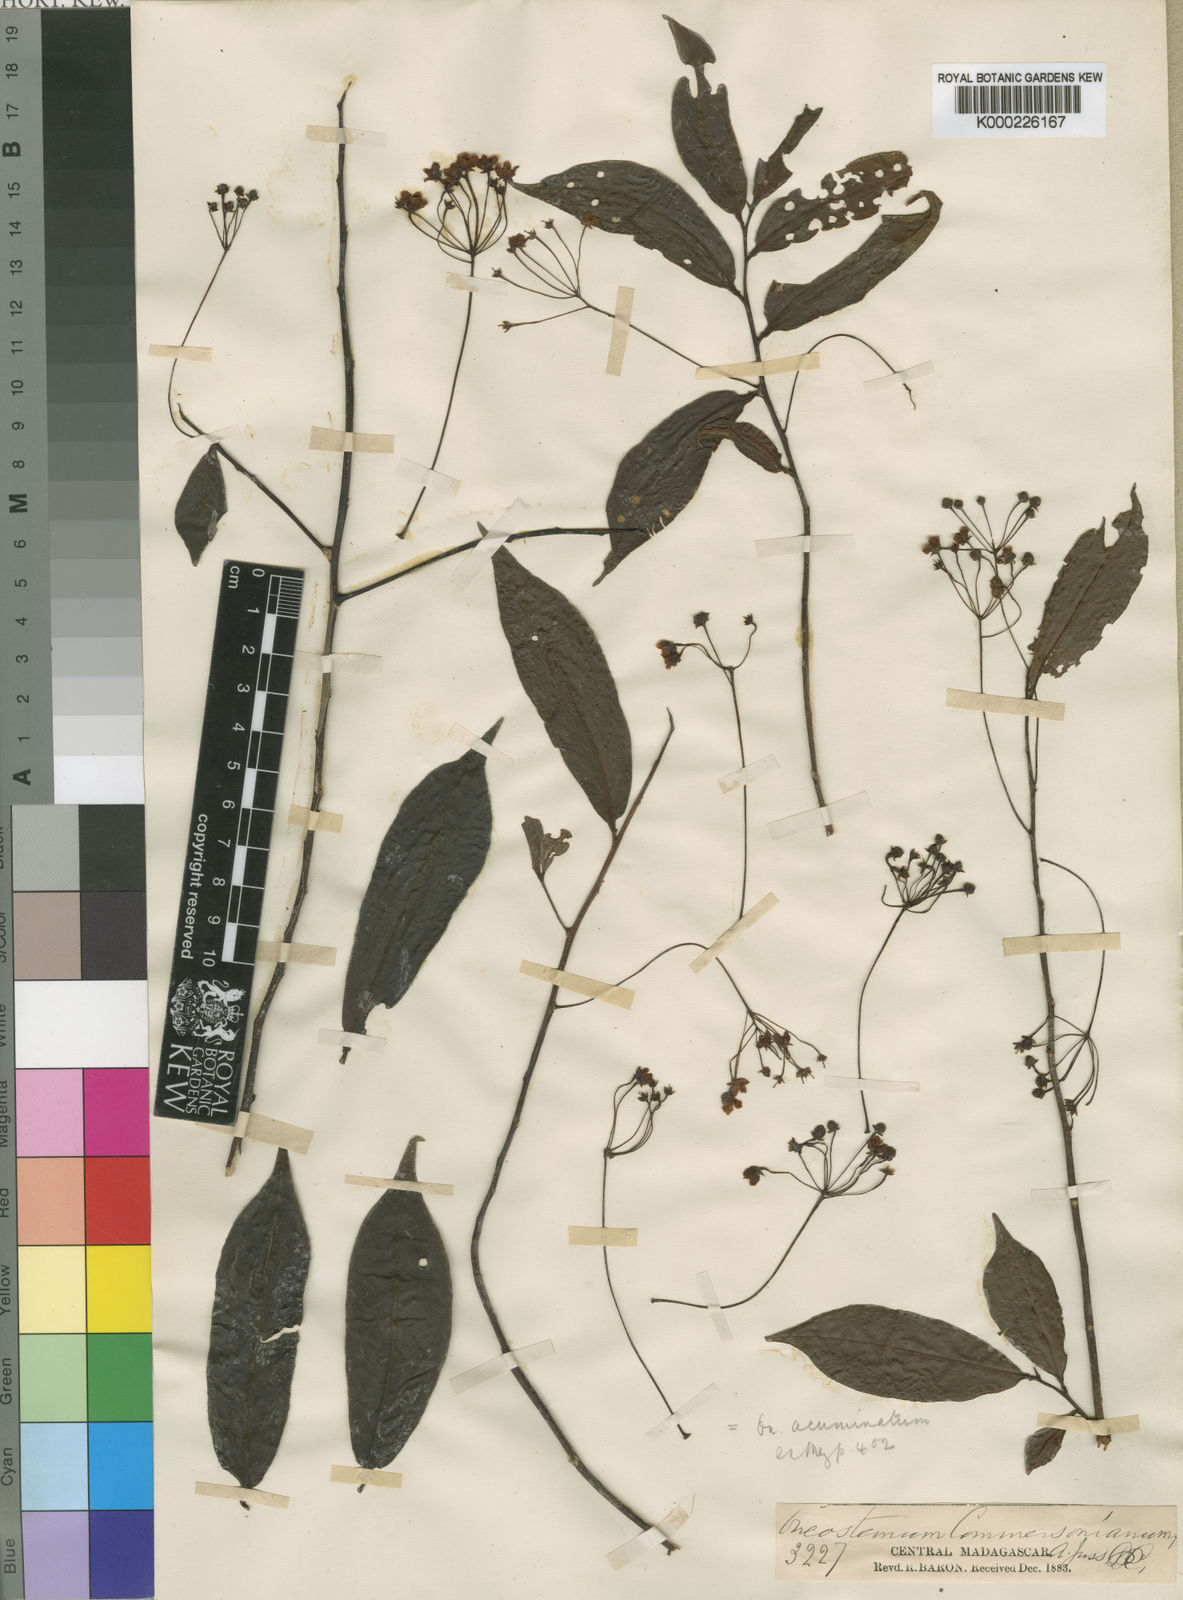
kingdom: Plantae
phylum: Tracheophyta
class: Magnoliopsida
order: Ericales
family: Primulaceae
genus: Oncostemum
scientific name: Oncostemum acuminatum
